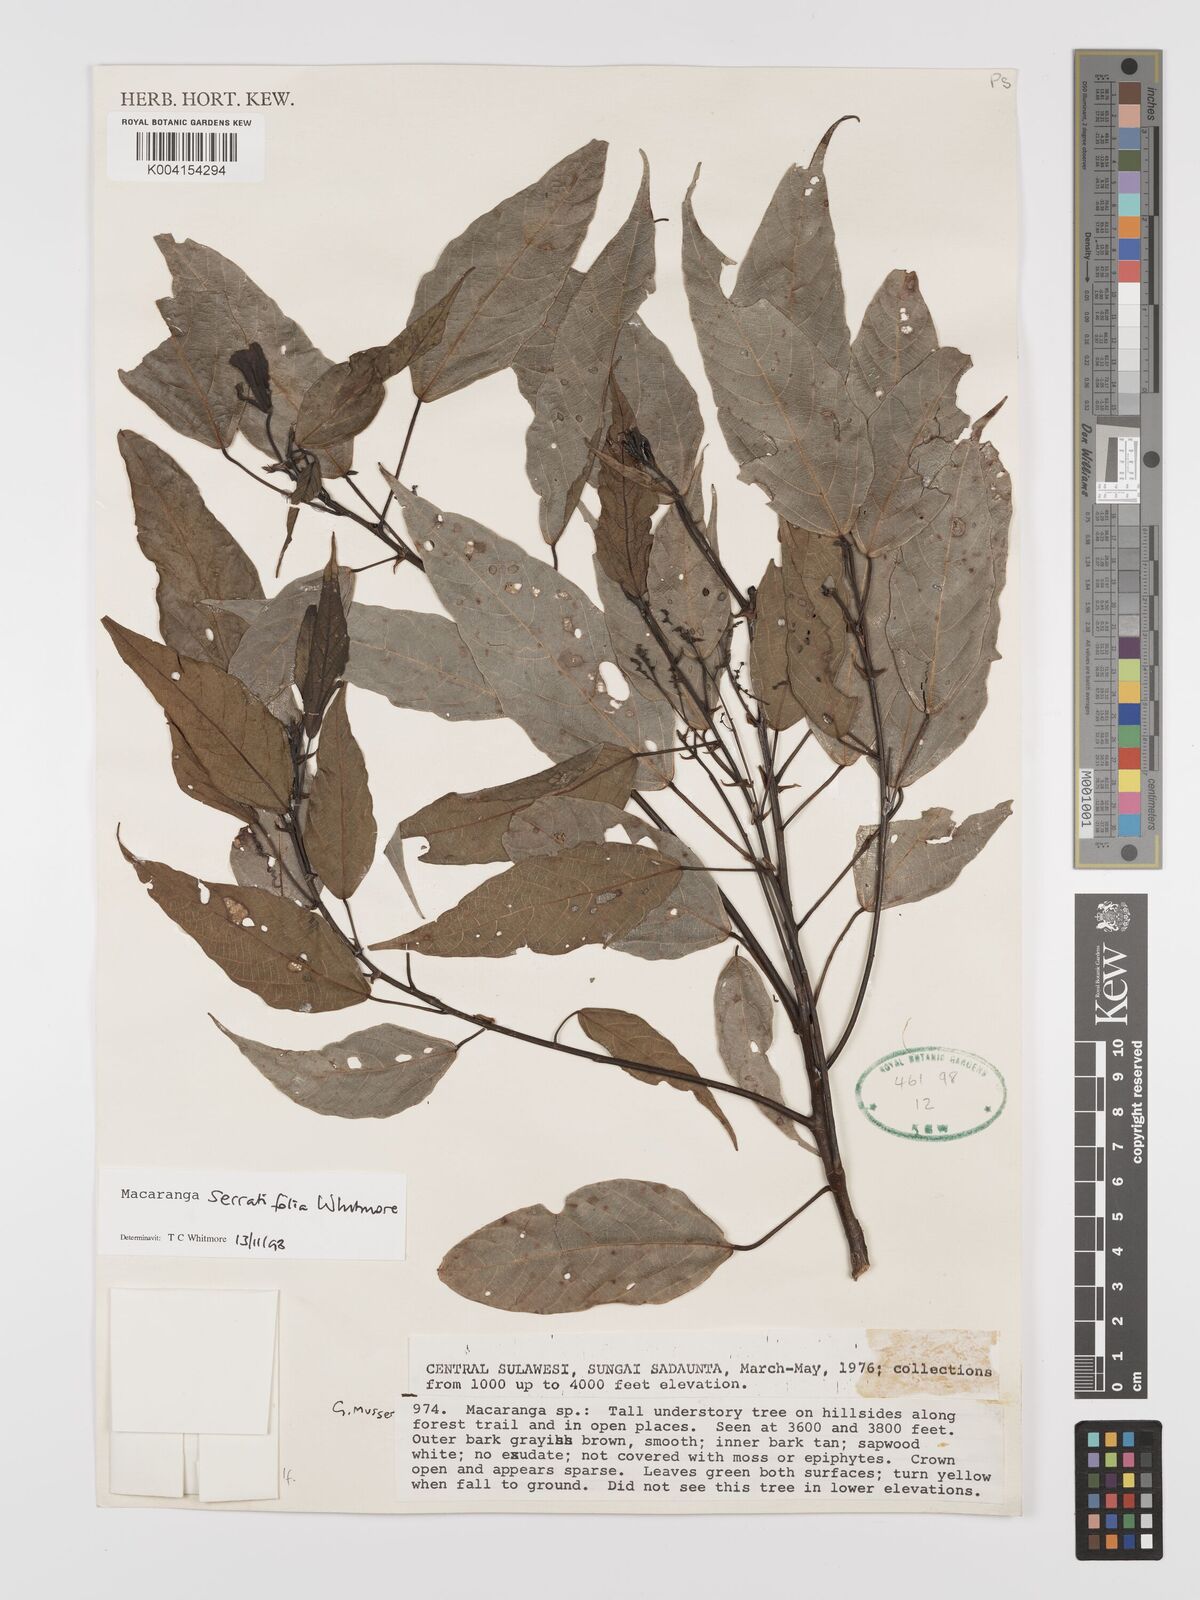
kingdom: Plantae
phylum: Tracheophyta
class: Magnoliopsida
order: Malpighiales
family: Euphorbiaceae
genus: Macaranga
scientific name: Macaranga serratifolia
